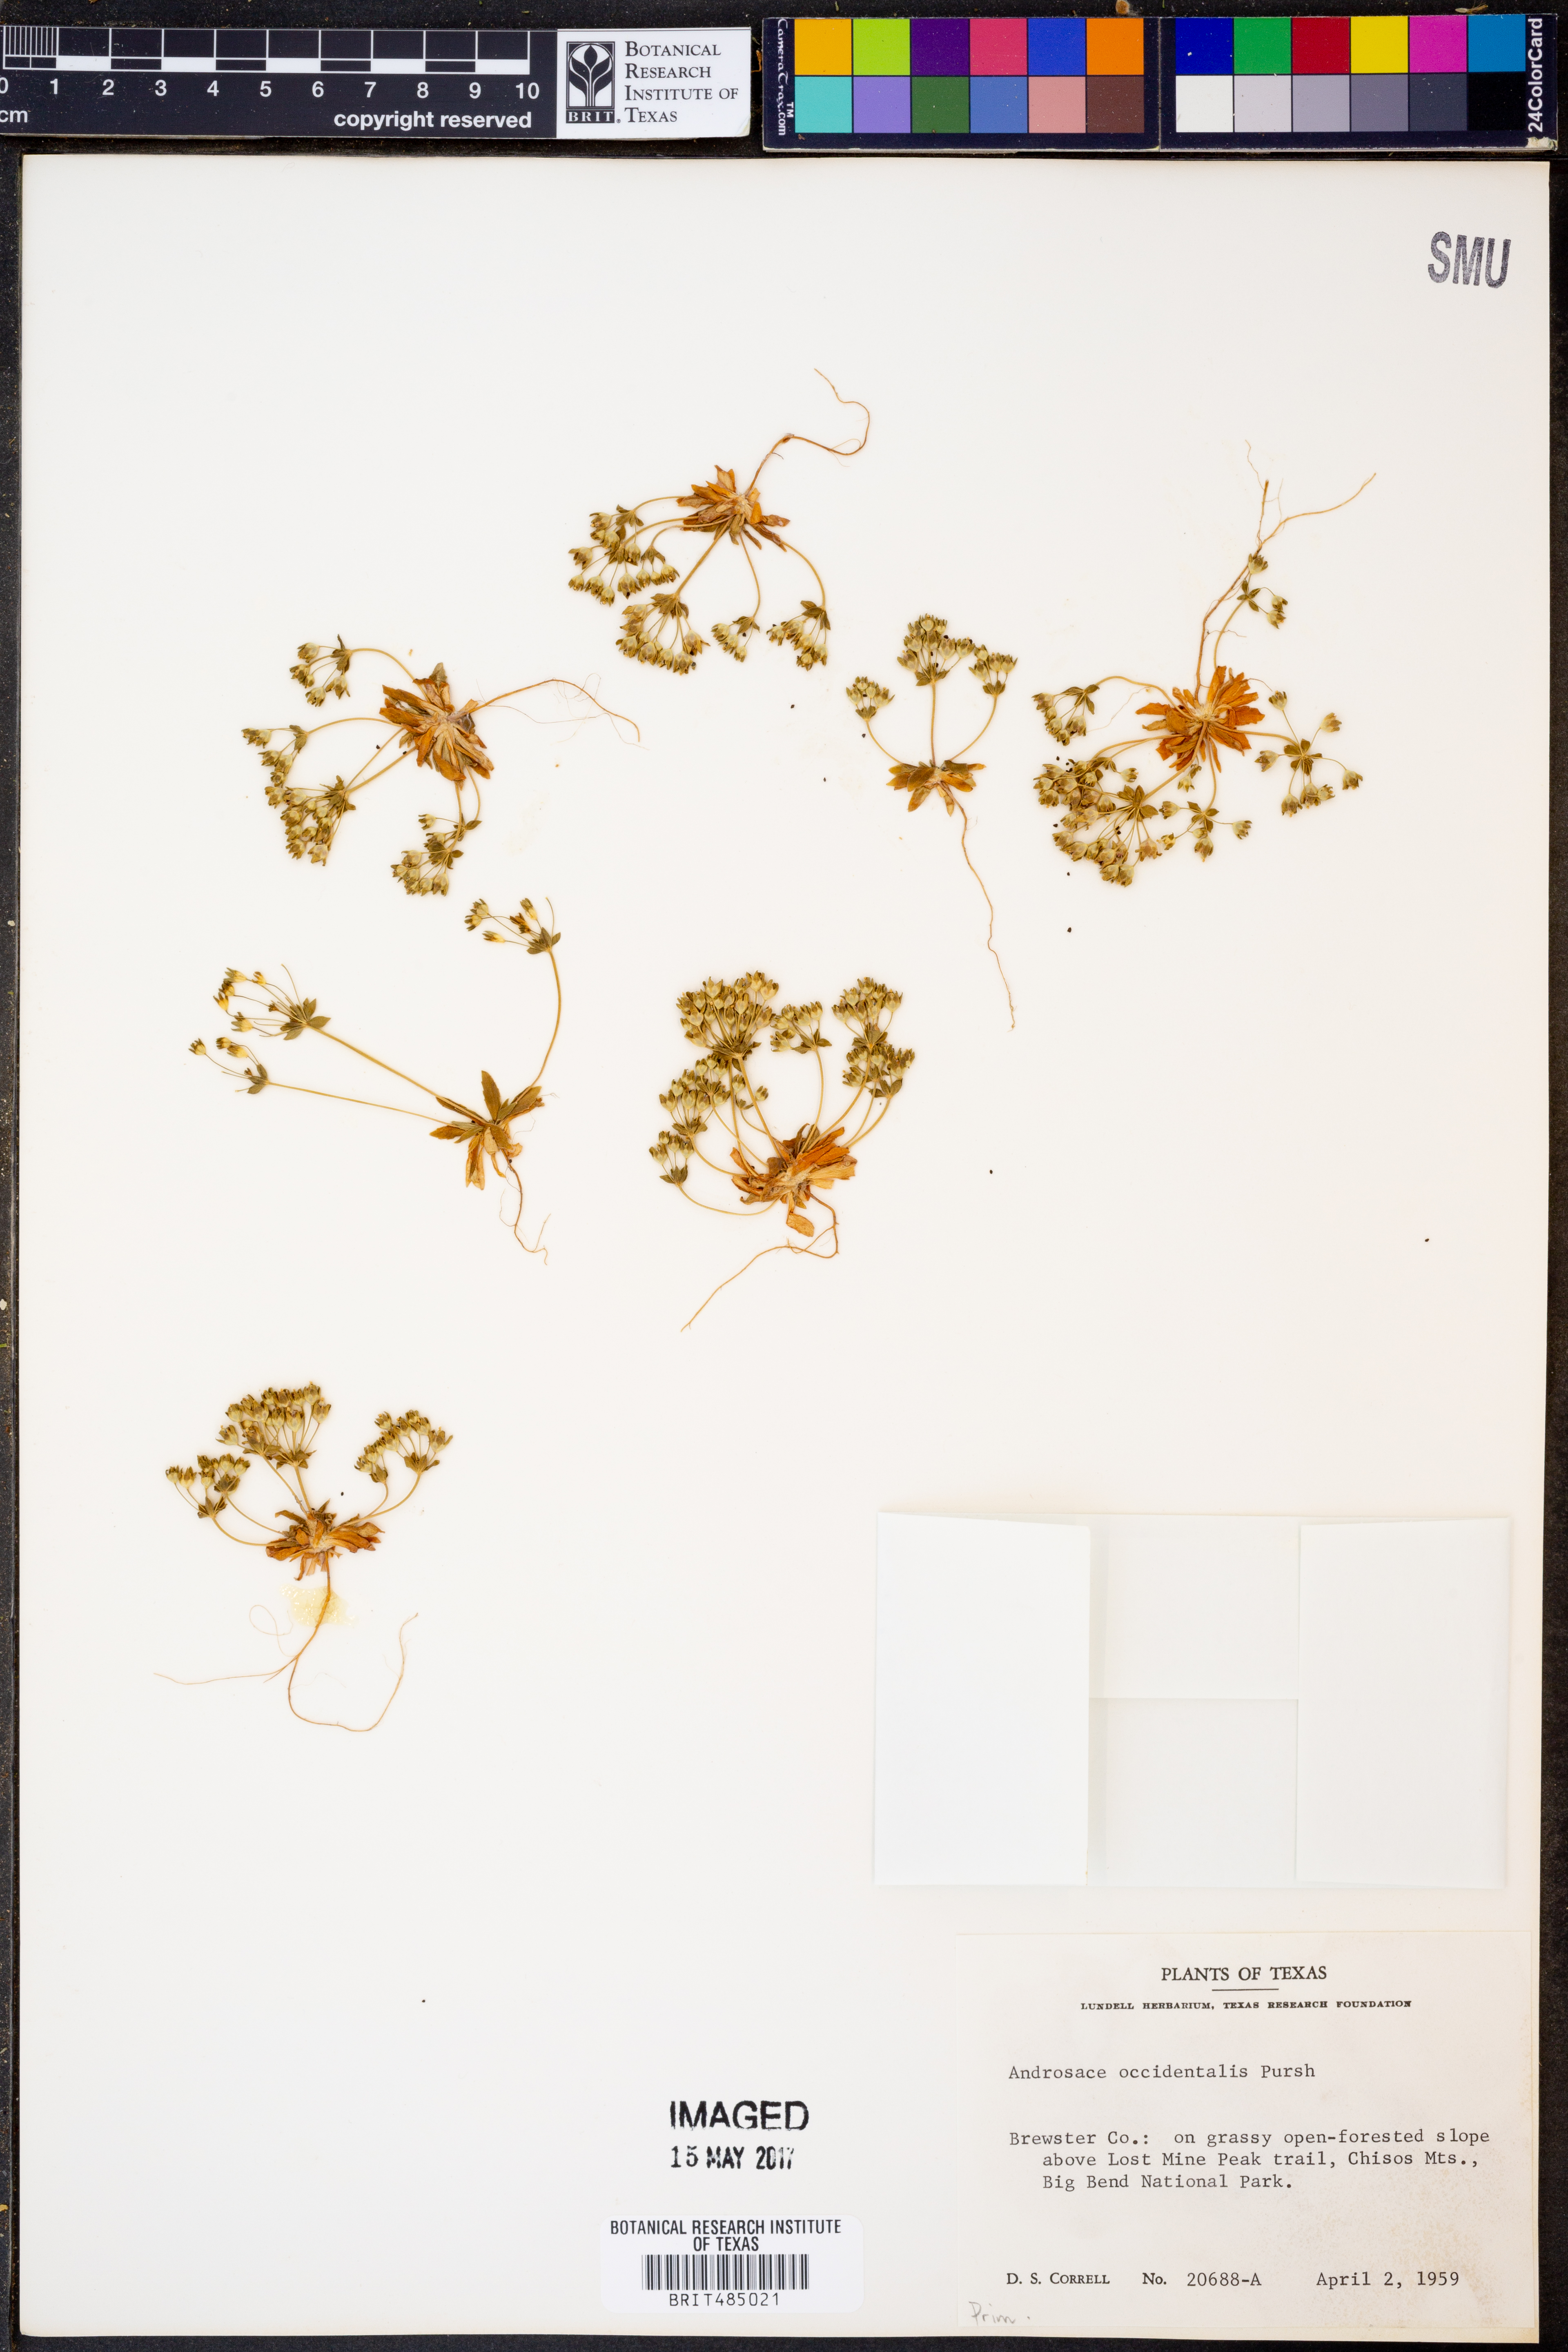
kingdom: Plantae
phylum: Tracheophyta
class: Magnoliopsida
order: Ericales
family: Primulaceae
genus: Androsace
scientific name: Androsace occidentalis
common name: West rock-jasmine
